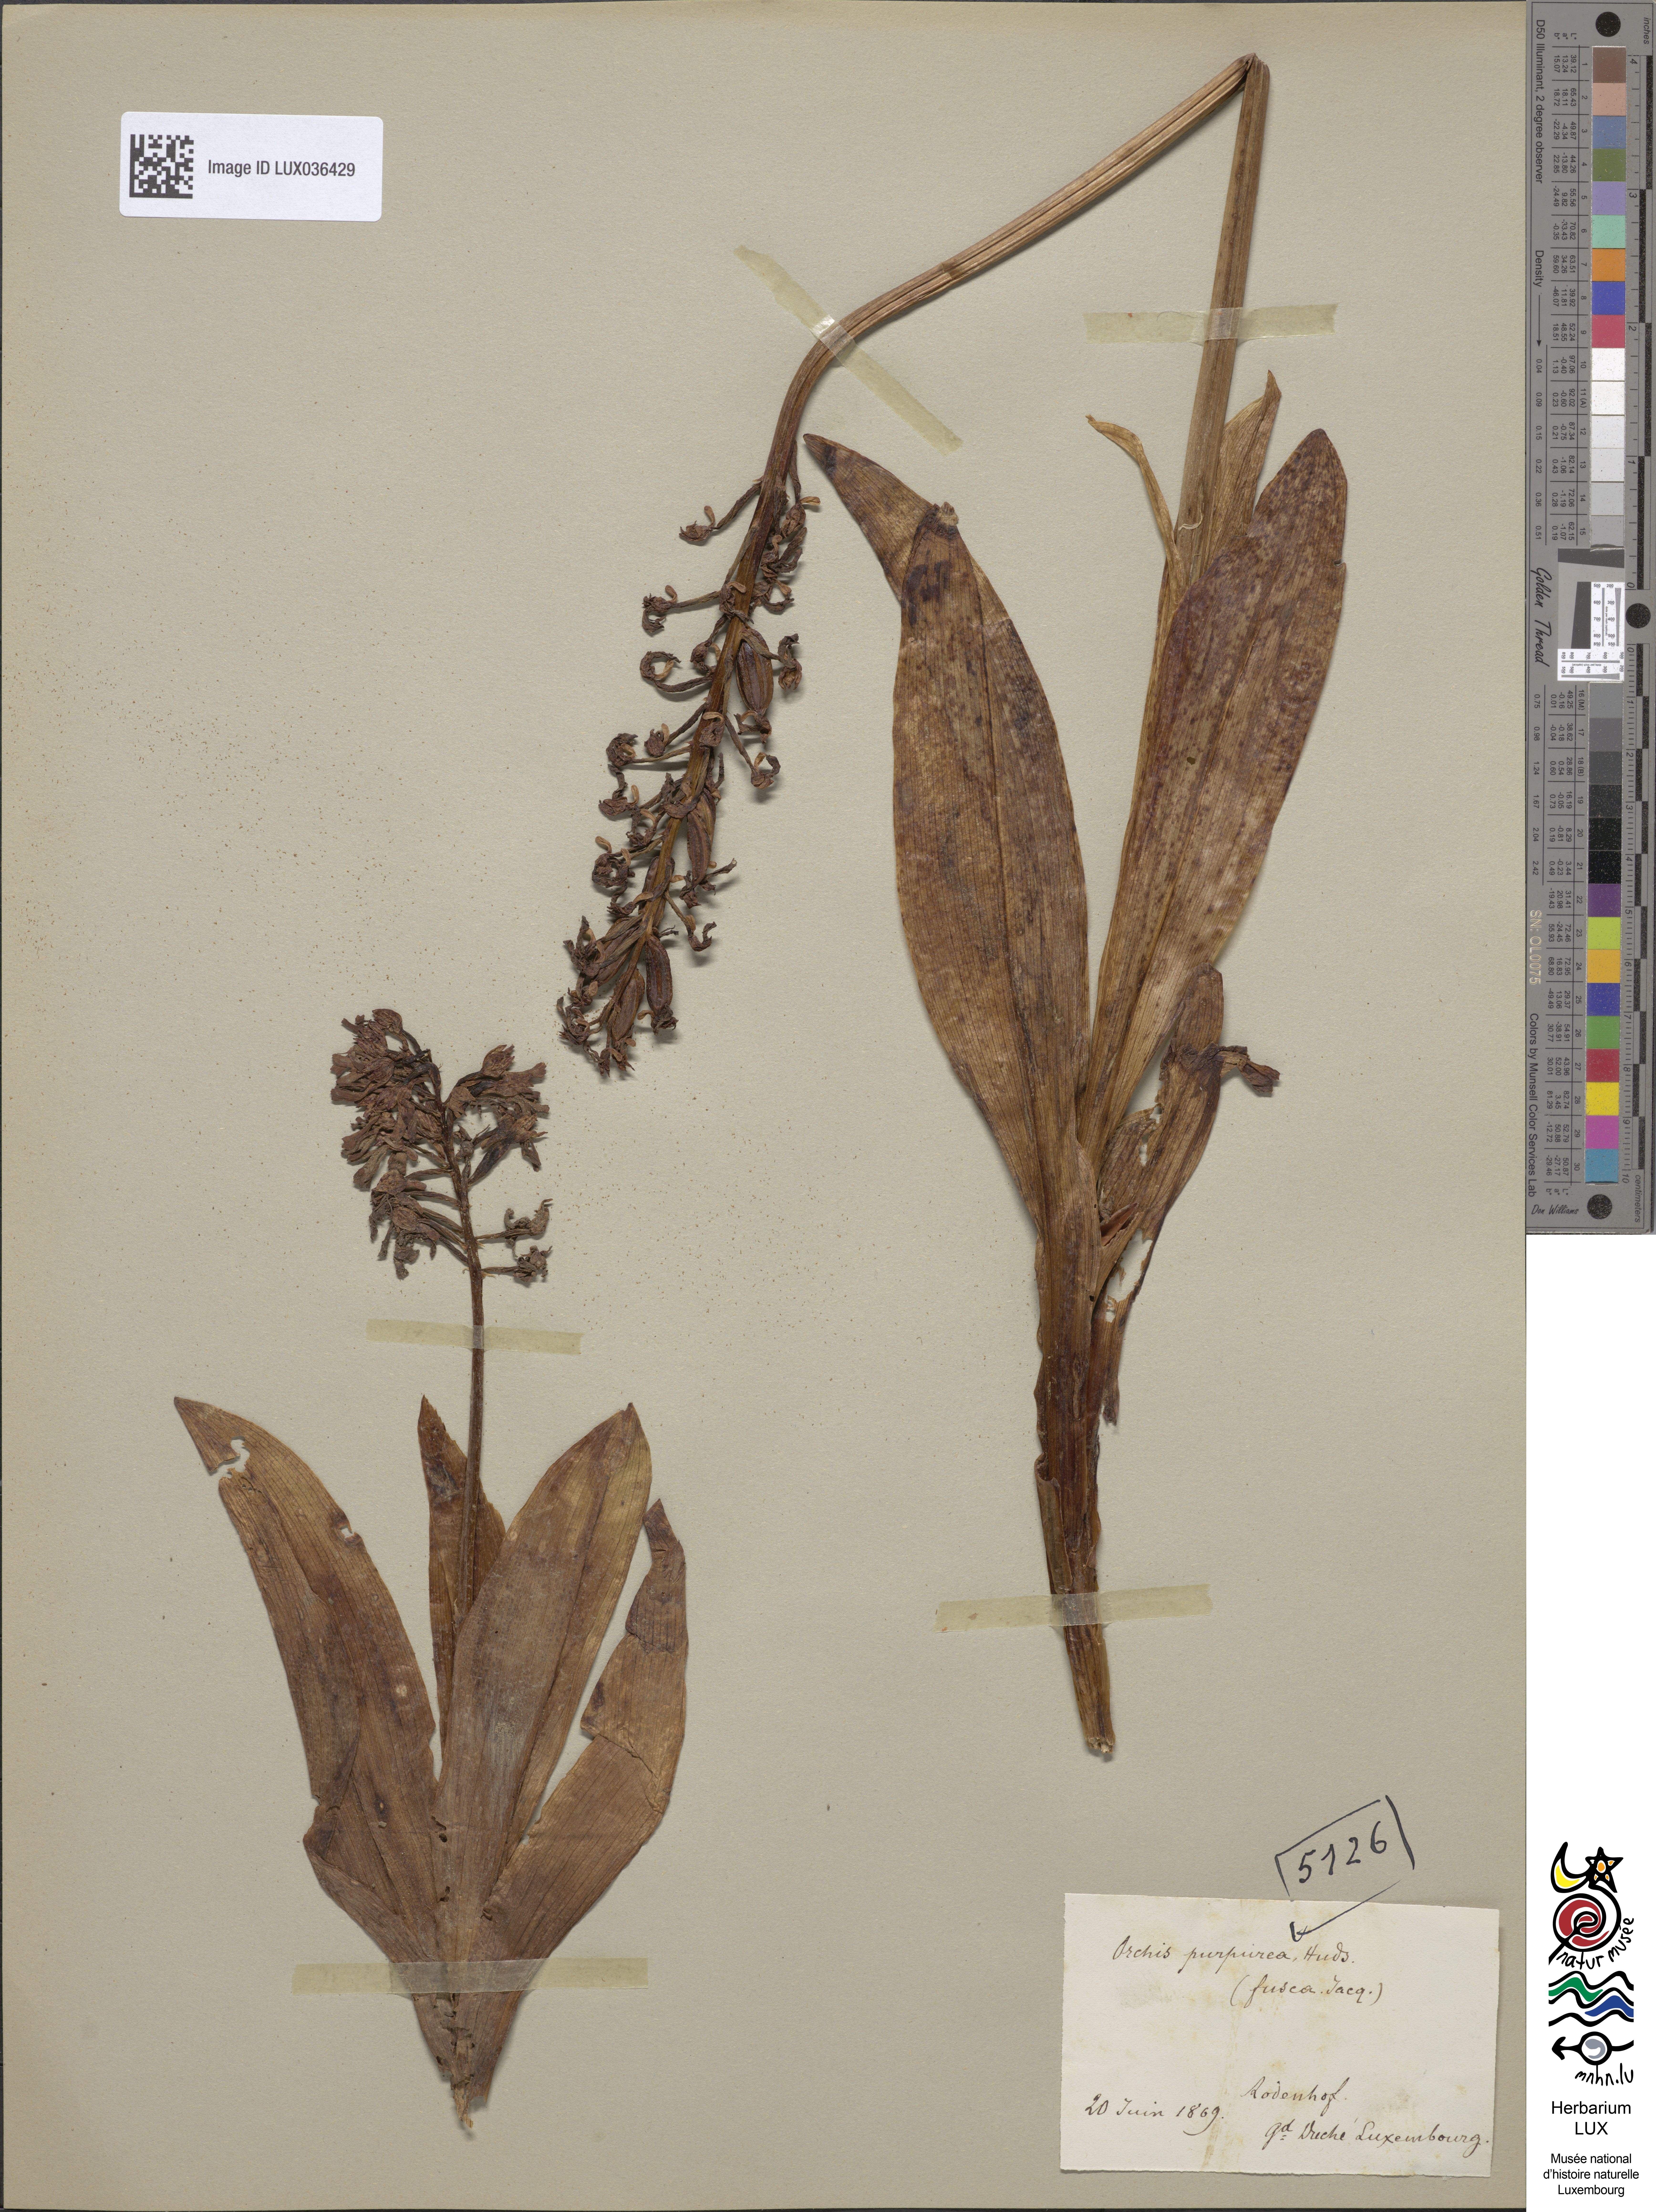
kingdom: Plantae
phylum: Tracheophyta
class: Liliopsida
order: Asparagales
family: Orchidaceae
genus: Orchis
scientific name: Orchis purpurea
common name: Lady orchid
